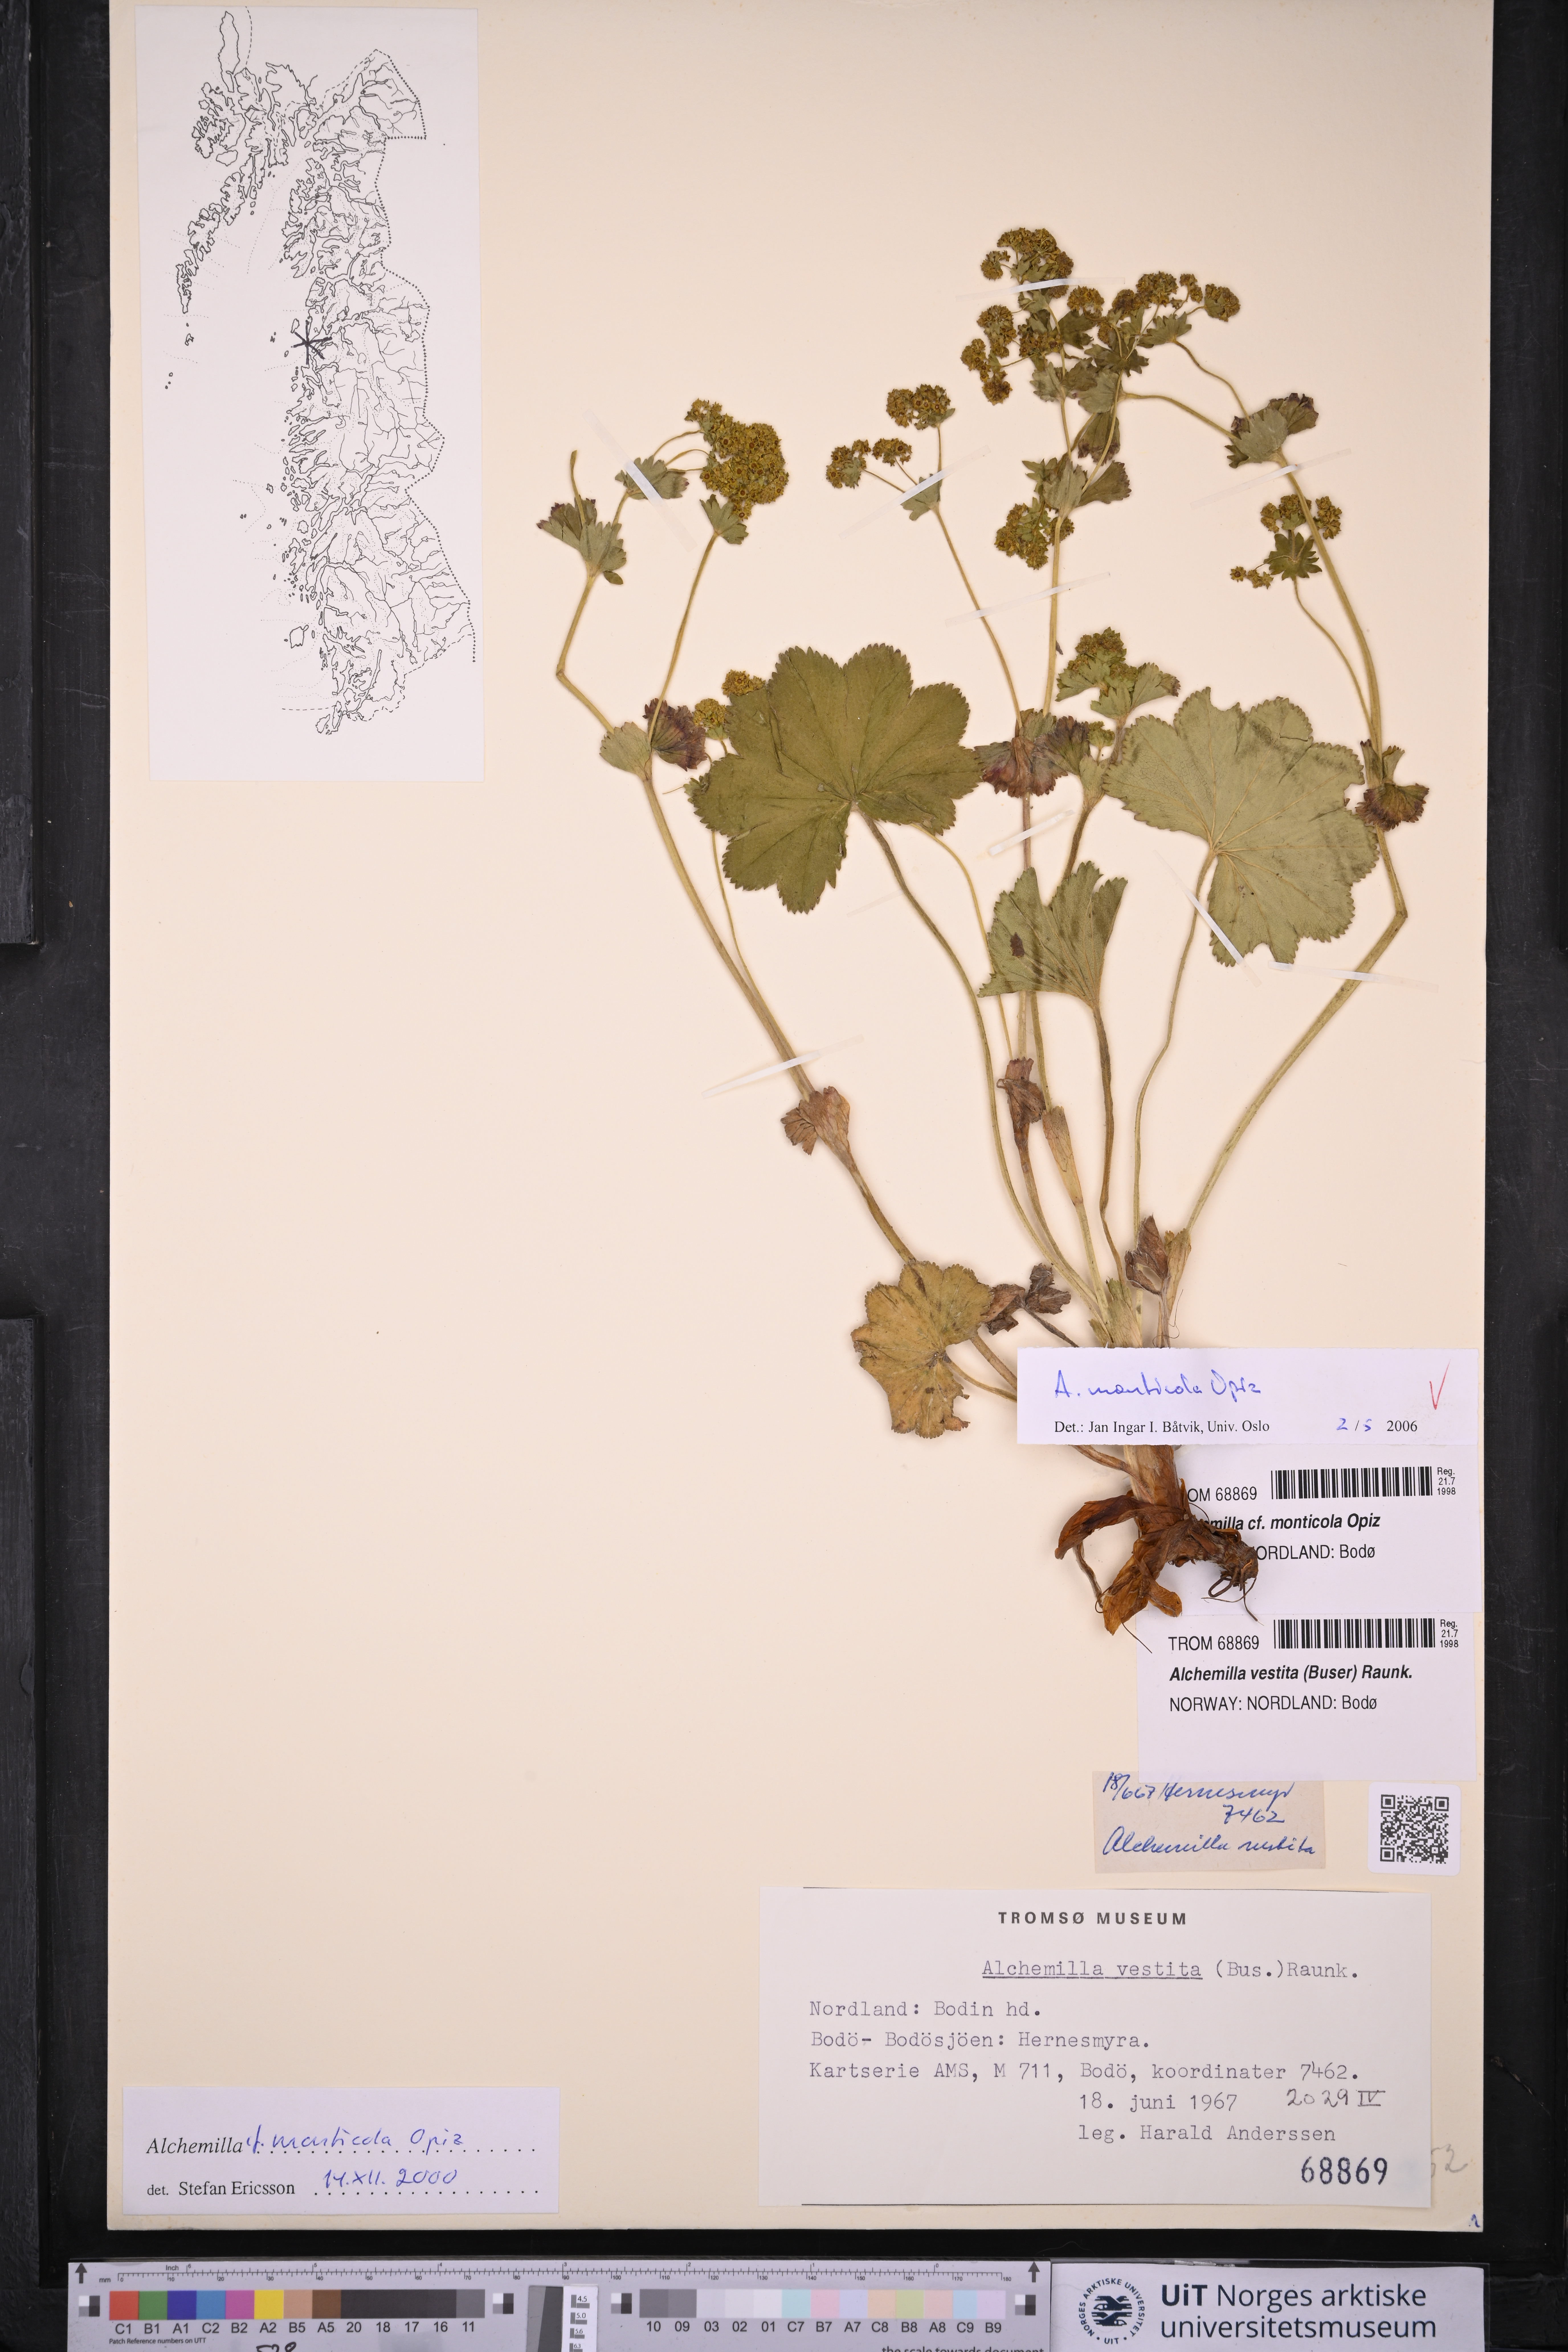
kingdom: Plantae
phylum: Tracheophyta
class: Magnoliopsida
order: Rosales
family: Rosaceae
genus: Alchemilla
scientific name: Alchemilla monticola
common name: Hairy lady's mantle
